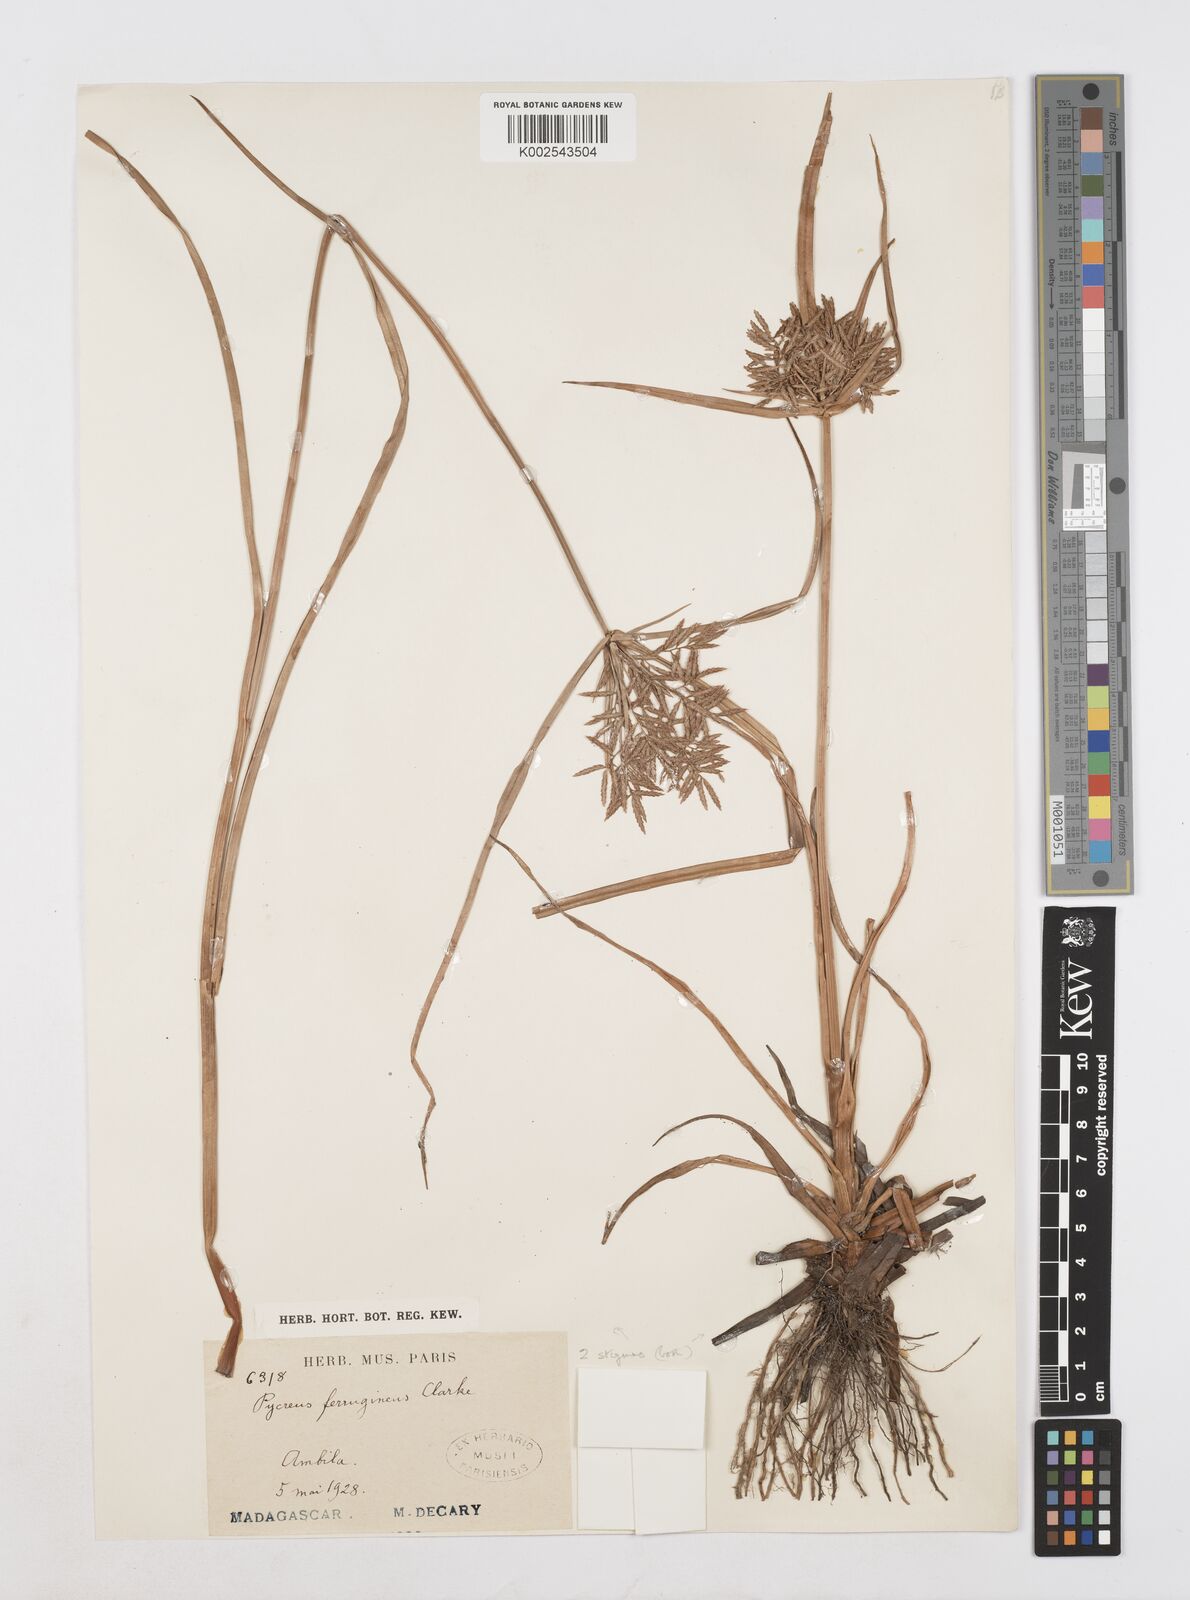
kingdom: Plantae
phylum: Tracheophyta
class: Liliopsida
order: Poales
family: Cyperaceae
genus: Cyperus
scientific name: Cyperus intactus
